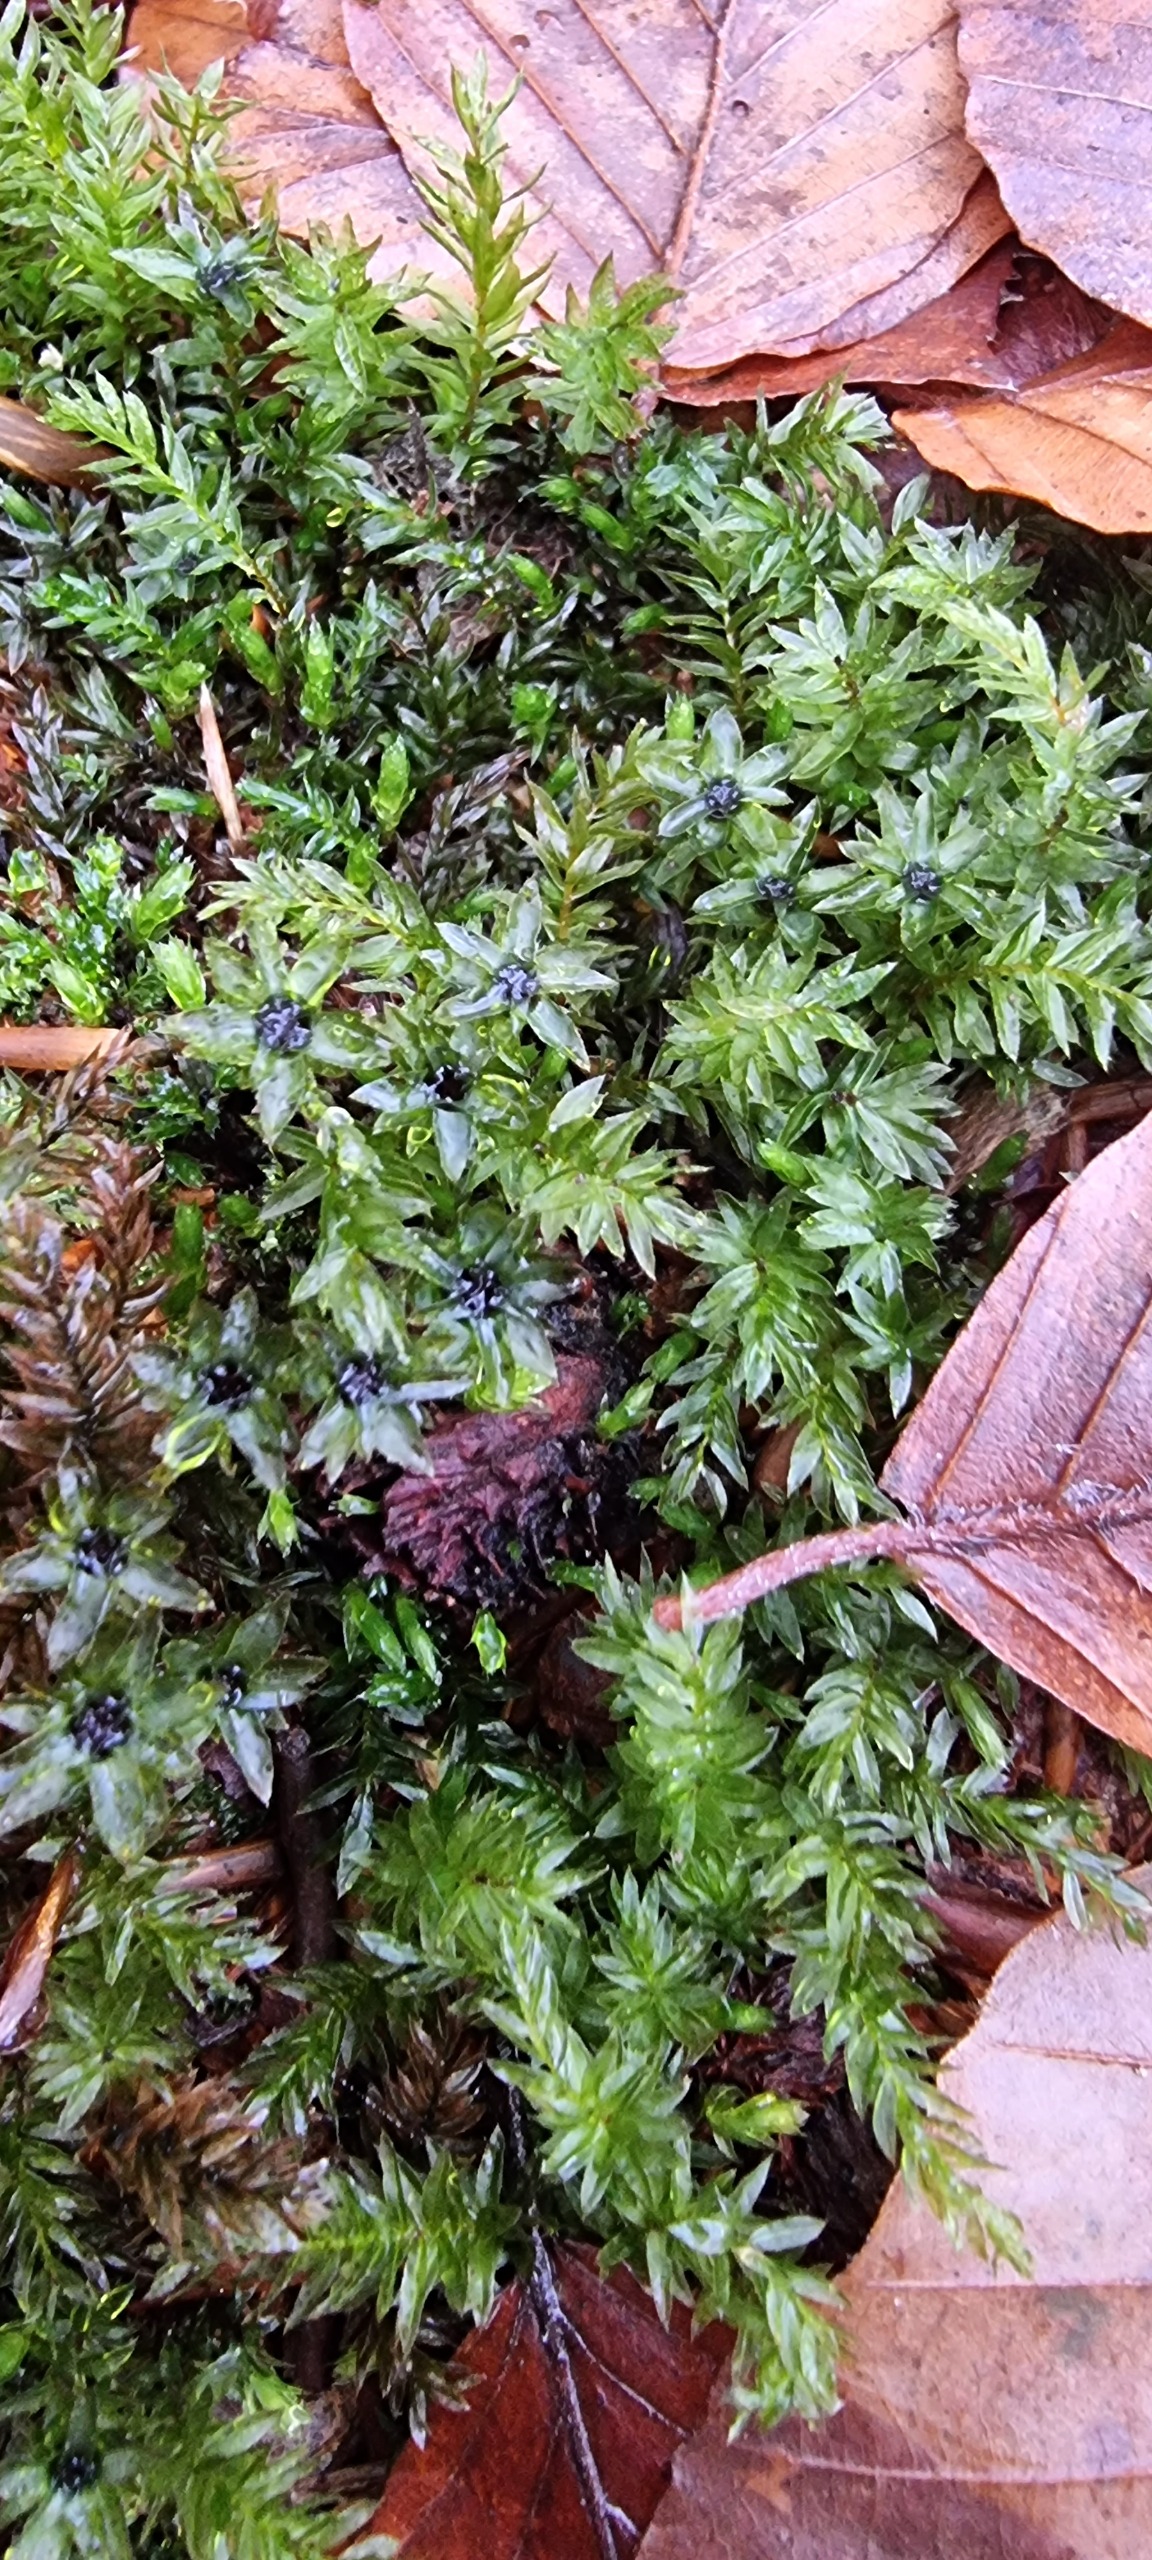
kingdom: Plantae
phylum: Bryophyta
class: Bryopsida
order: Bryales
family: Mniaceae
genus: Mnium
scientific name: Mnium hornum
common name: Brunfiltet stjernemos
